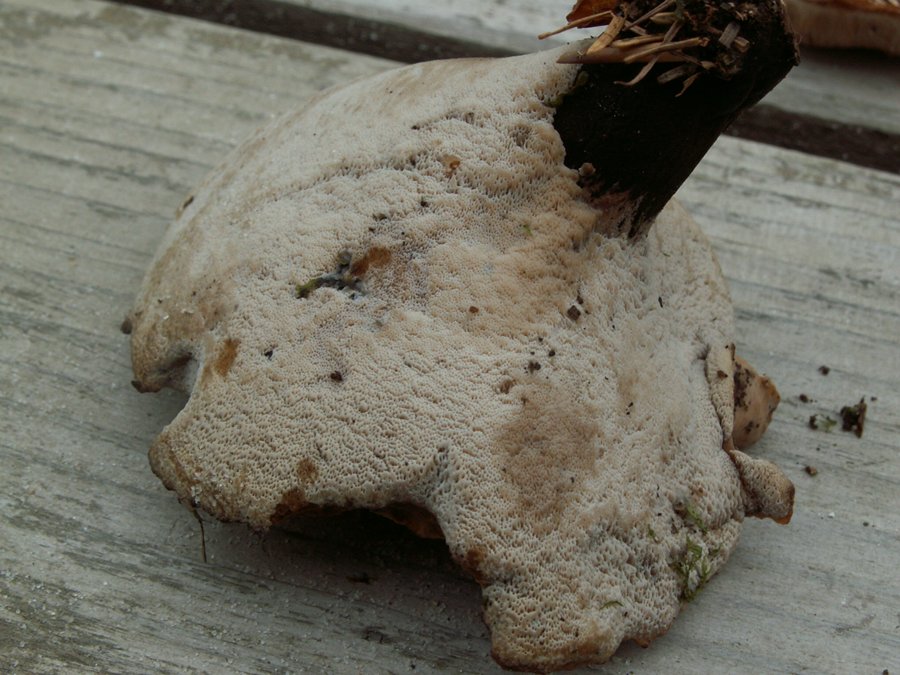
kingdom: Fungi
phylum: Basidiomycota
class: Agaricomycetes
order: Polyporales
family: Polyporaceae
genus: Cerioporus
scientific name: Cerioporus varius
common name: foranderlig stilkporesvamp
